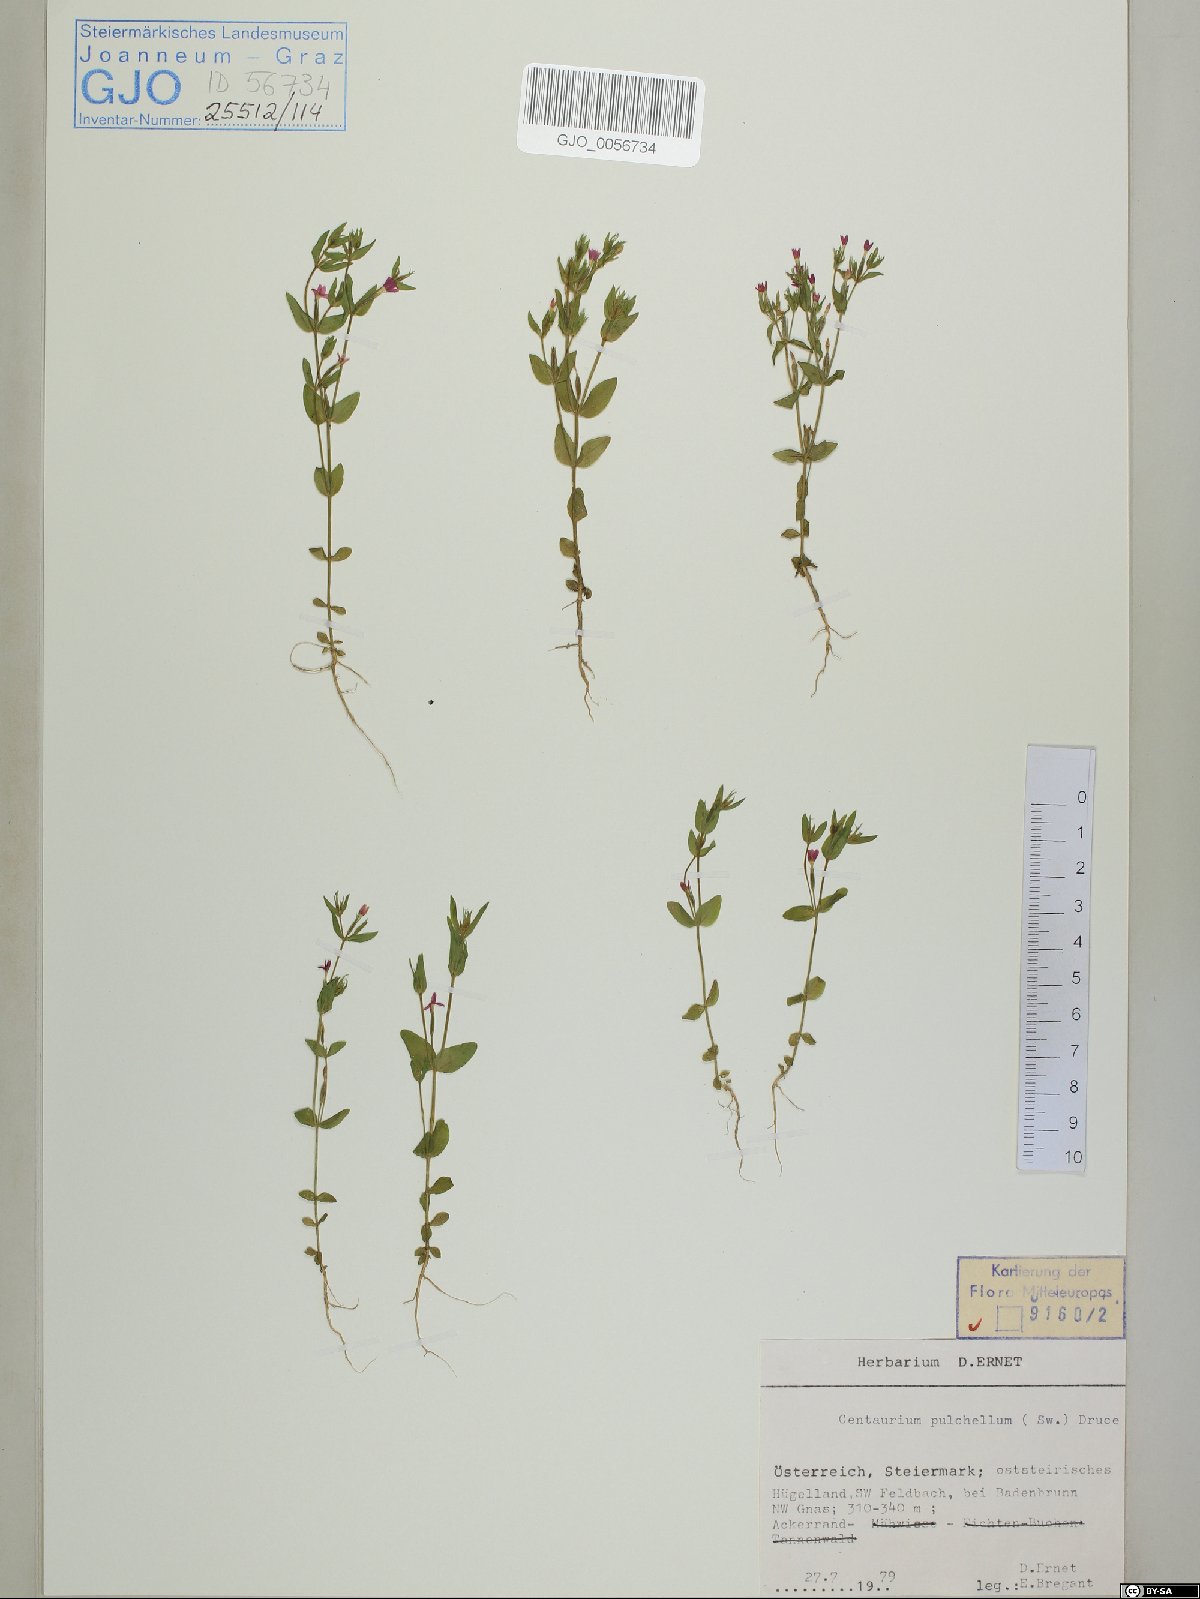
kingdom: Plantae
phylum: Tracheophyta
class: Magnoliopsida
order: Gentianales
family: Gentianaceae
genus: Centaurium
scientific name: Centaurium pulchellum
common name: Lesser centaury
